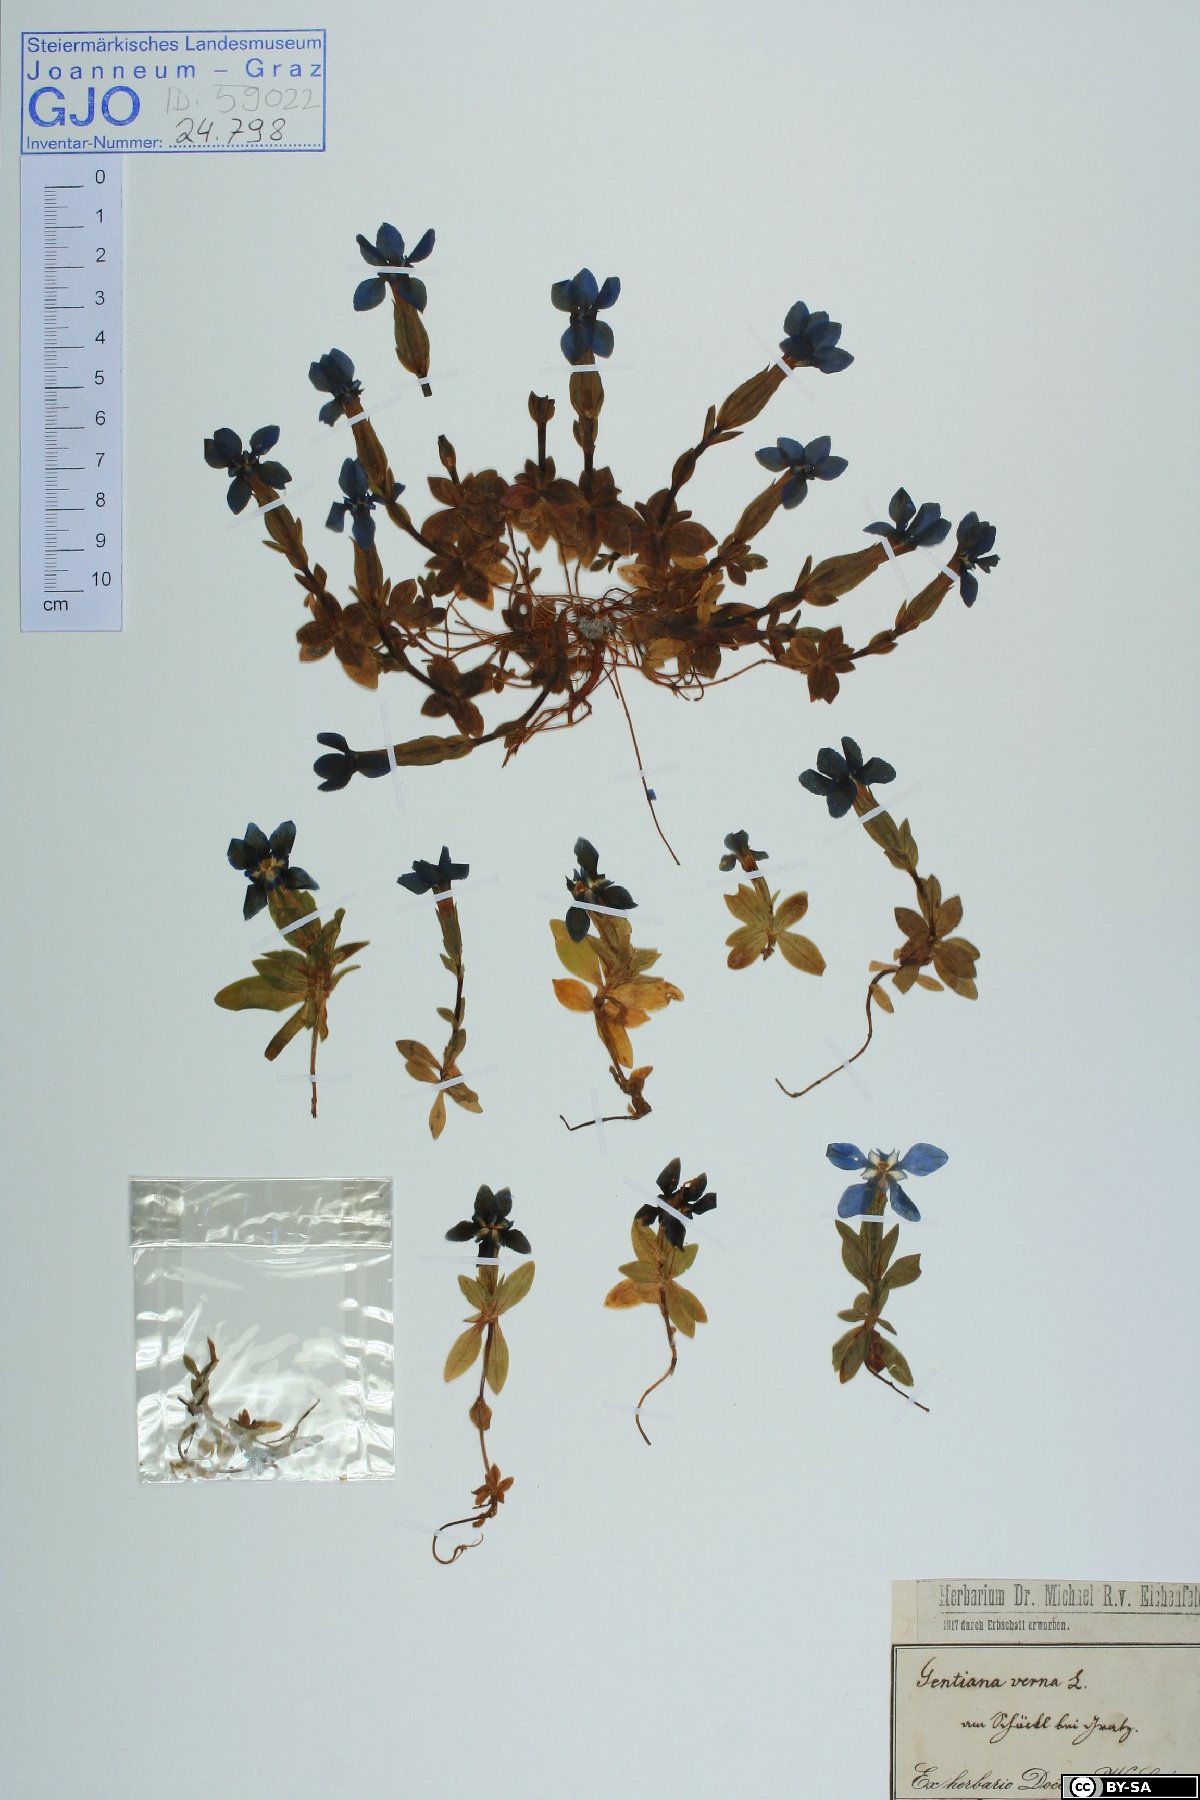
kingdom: Plantae
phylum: Tracheophyta
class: Magnoliopsida
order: Gentianales
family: Gentianaceae
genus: Gentiana
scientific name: Gentiana verna
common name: Spring gentian
